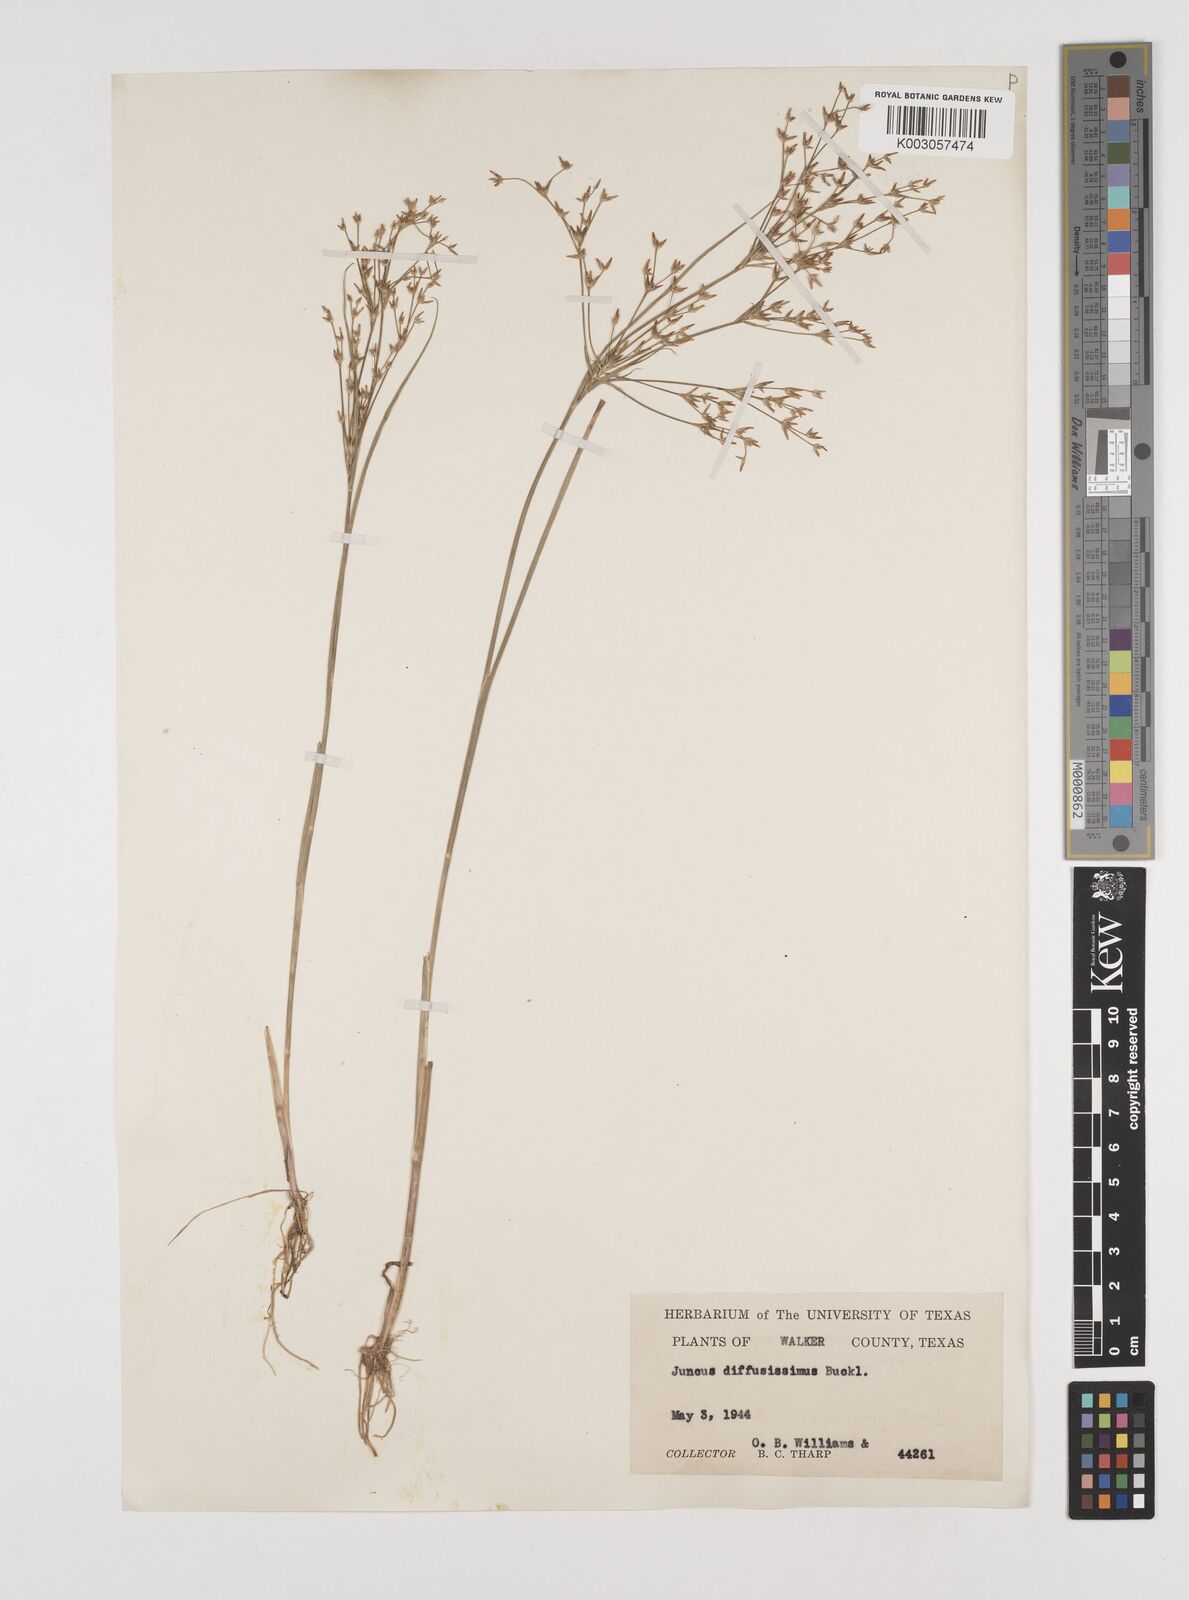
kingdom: Plantae
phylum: Tracheophyta
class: Liliopsida
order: Poales
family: Juncaceae
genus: Juncus
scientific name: Juncus diffusissimus
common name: Slimpod rush
